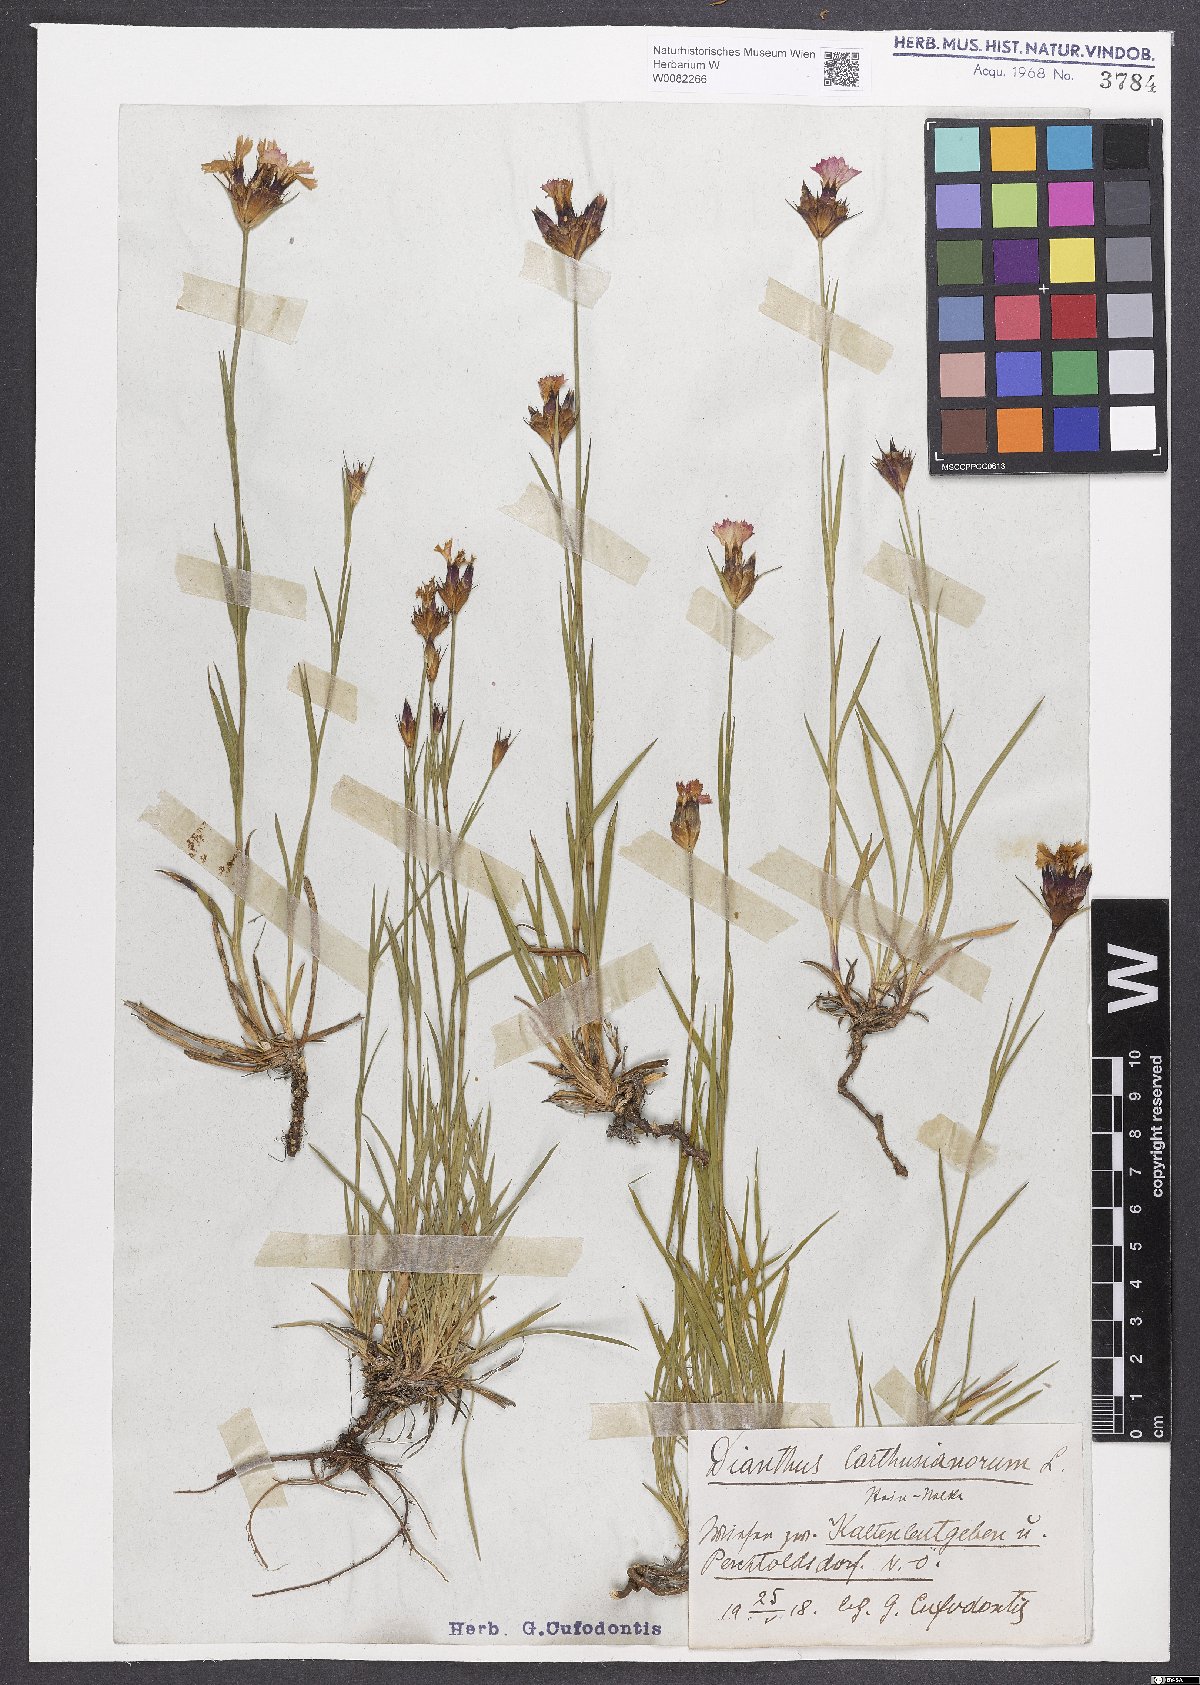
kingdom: Plantae
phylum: Tracheophyta
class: Magnoliopsida
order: Caryophyllales
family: Caryophyllaceae
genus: Dianthus
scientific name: Dianthus carthusianorum
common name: Carthusian pink
